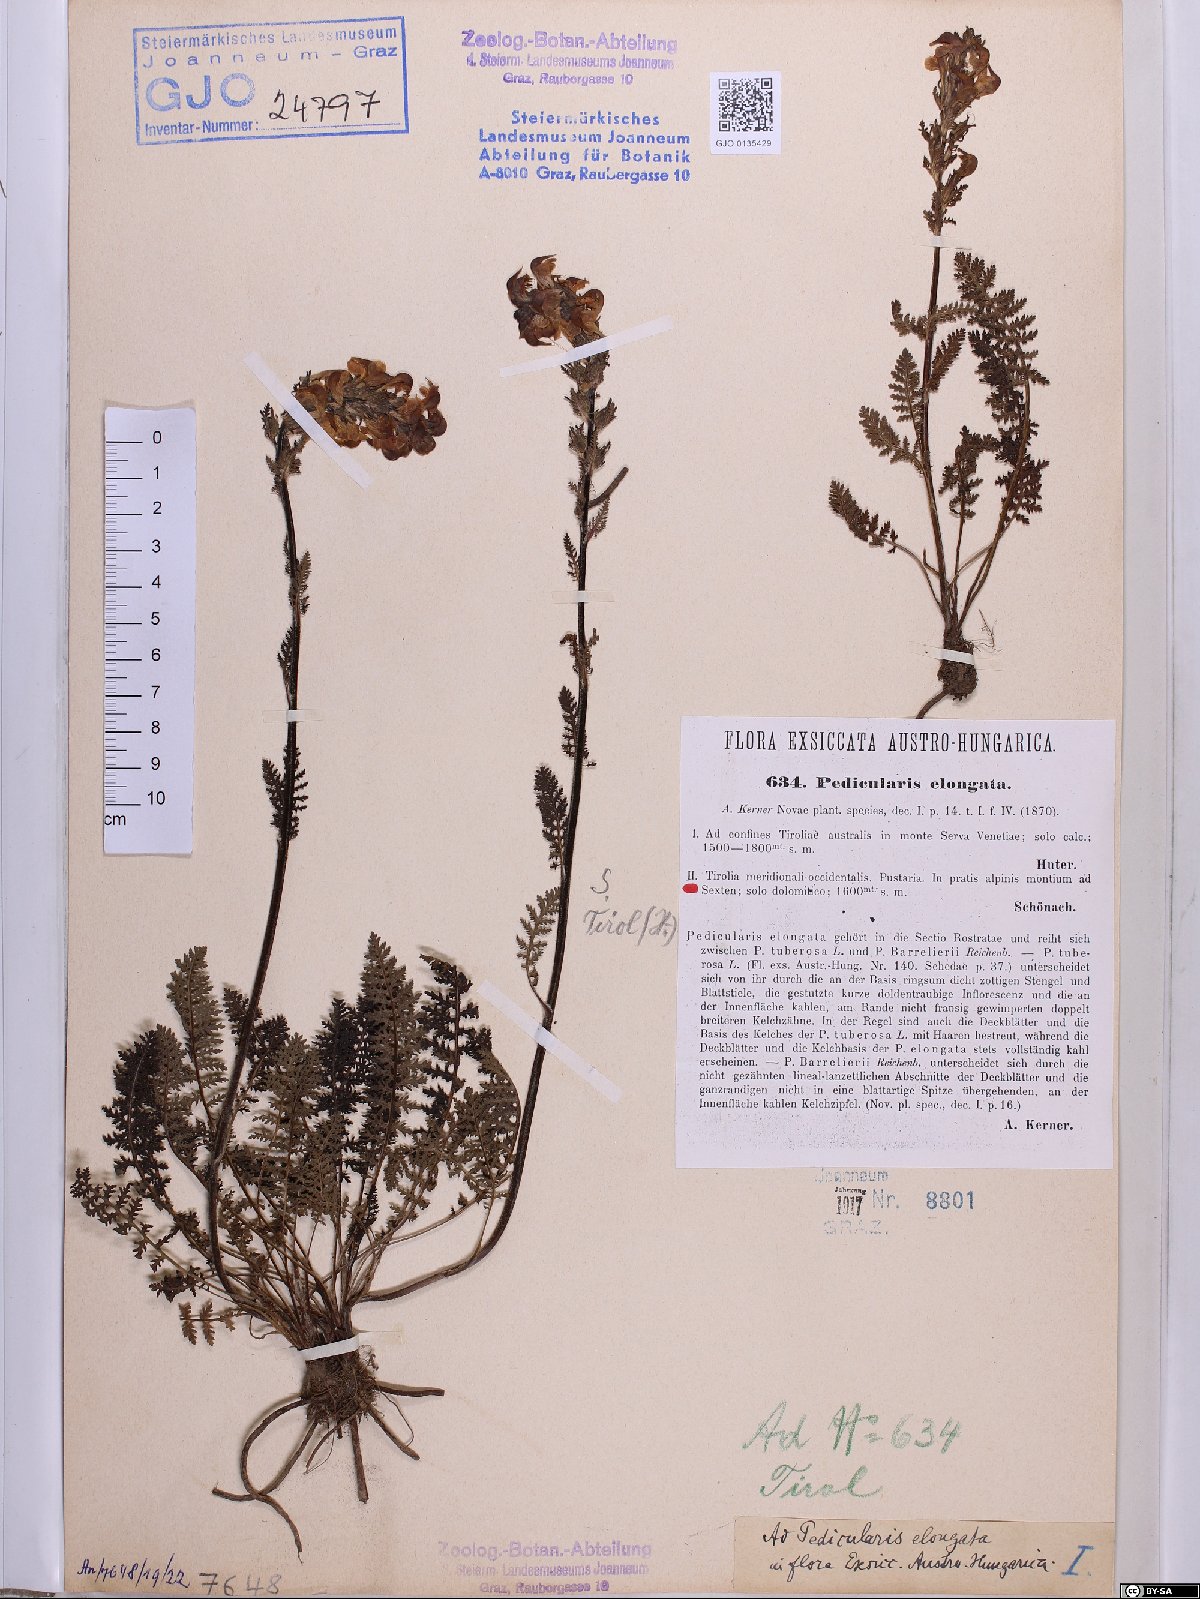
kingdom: Plantae
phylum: Tracheophyta
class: Magnoliopsida
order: Lamiales
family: Orobanchaceae
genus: Pedicularis
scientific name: Pedicularis elongata
